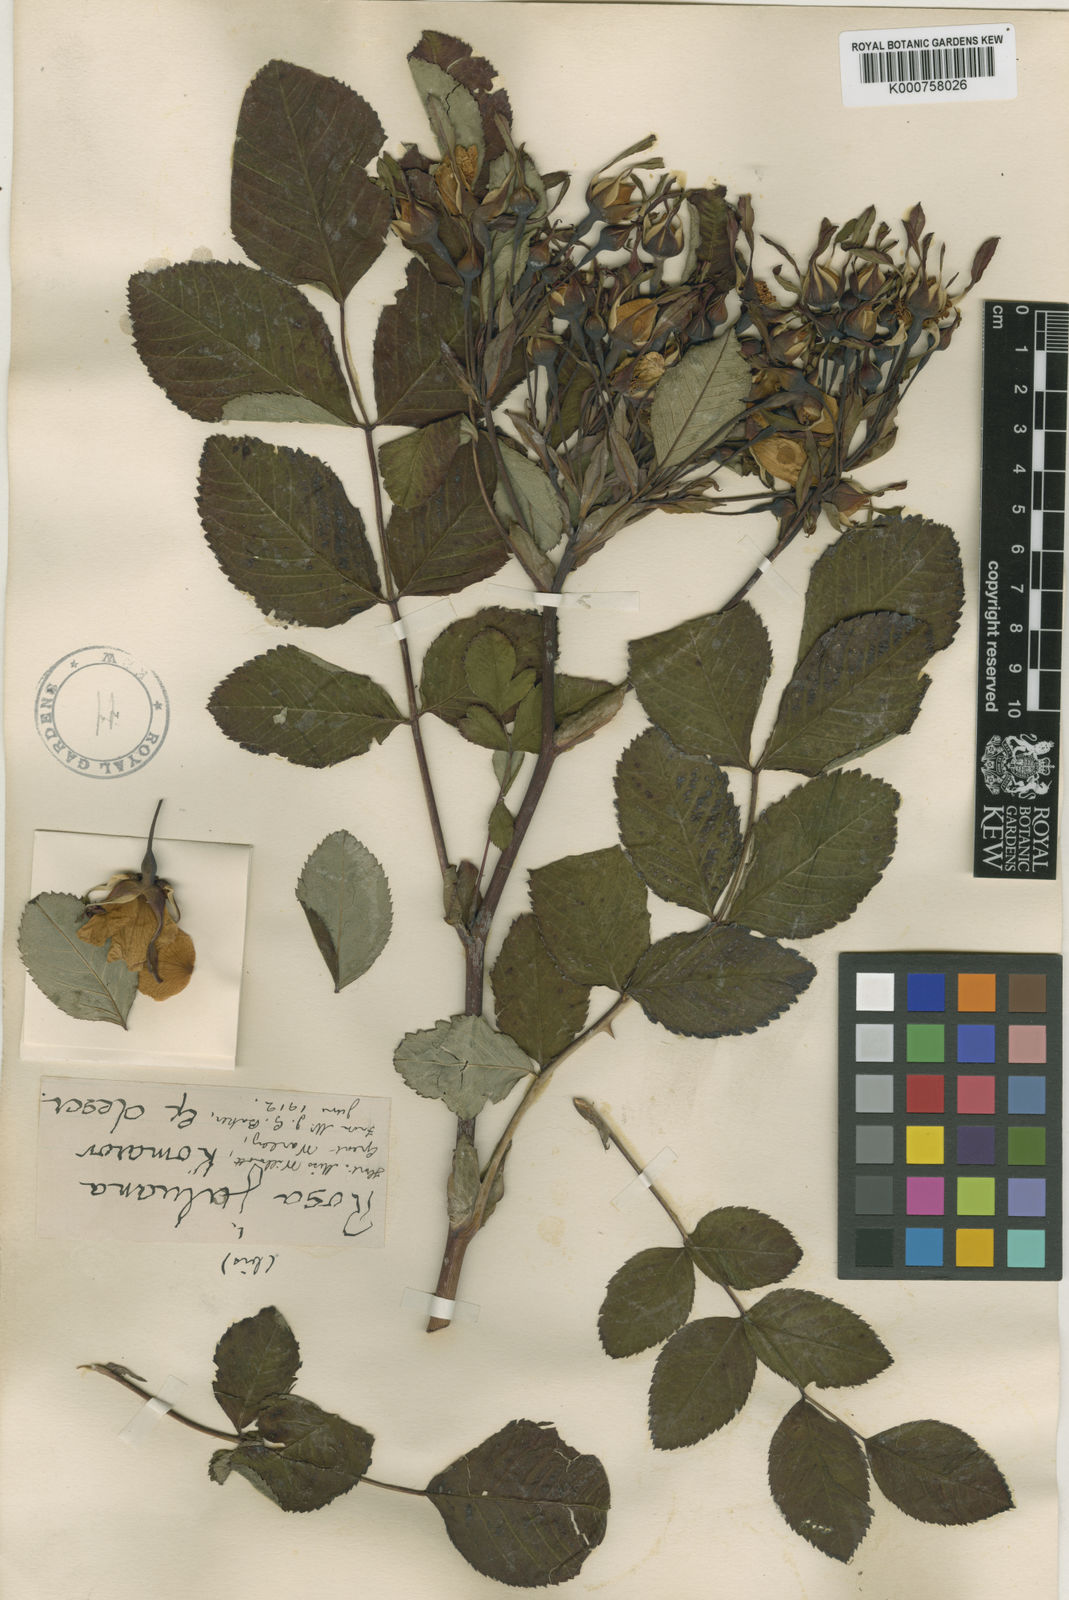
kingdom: Plantae
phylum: Tracheophyta
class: Magnoliopsida
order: Rosales
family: Rosaceae
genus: Rosa
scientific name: Rosa maximowicziana
